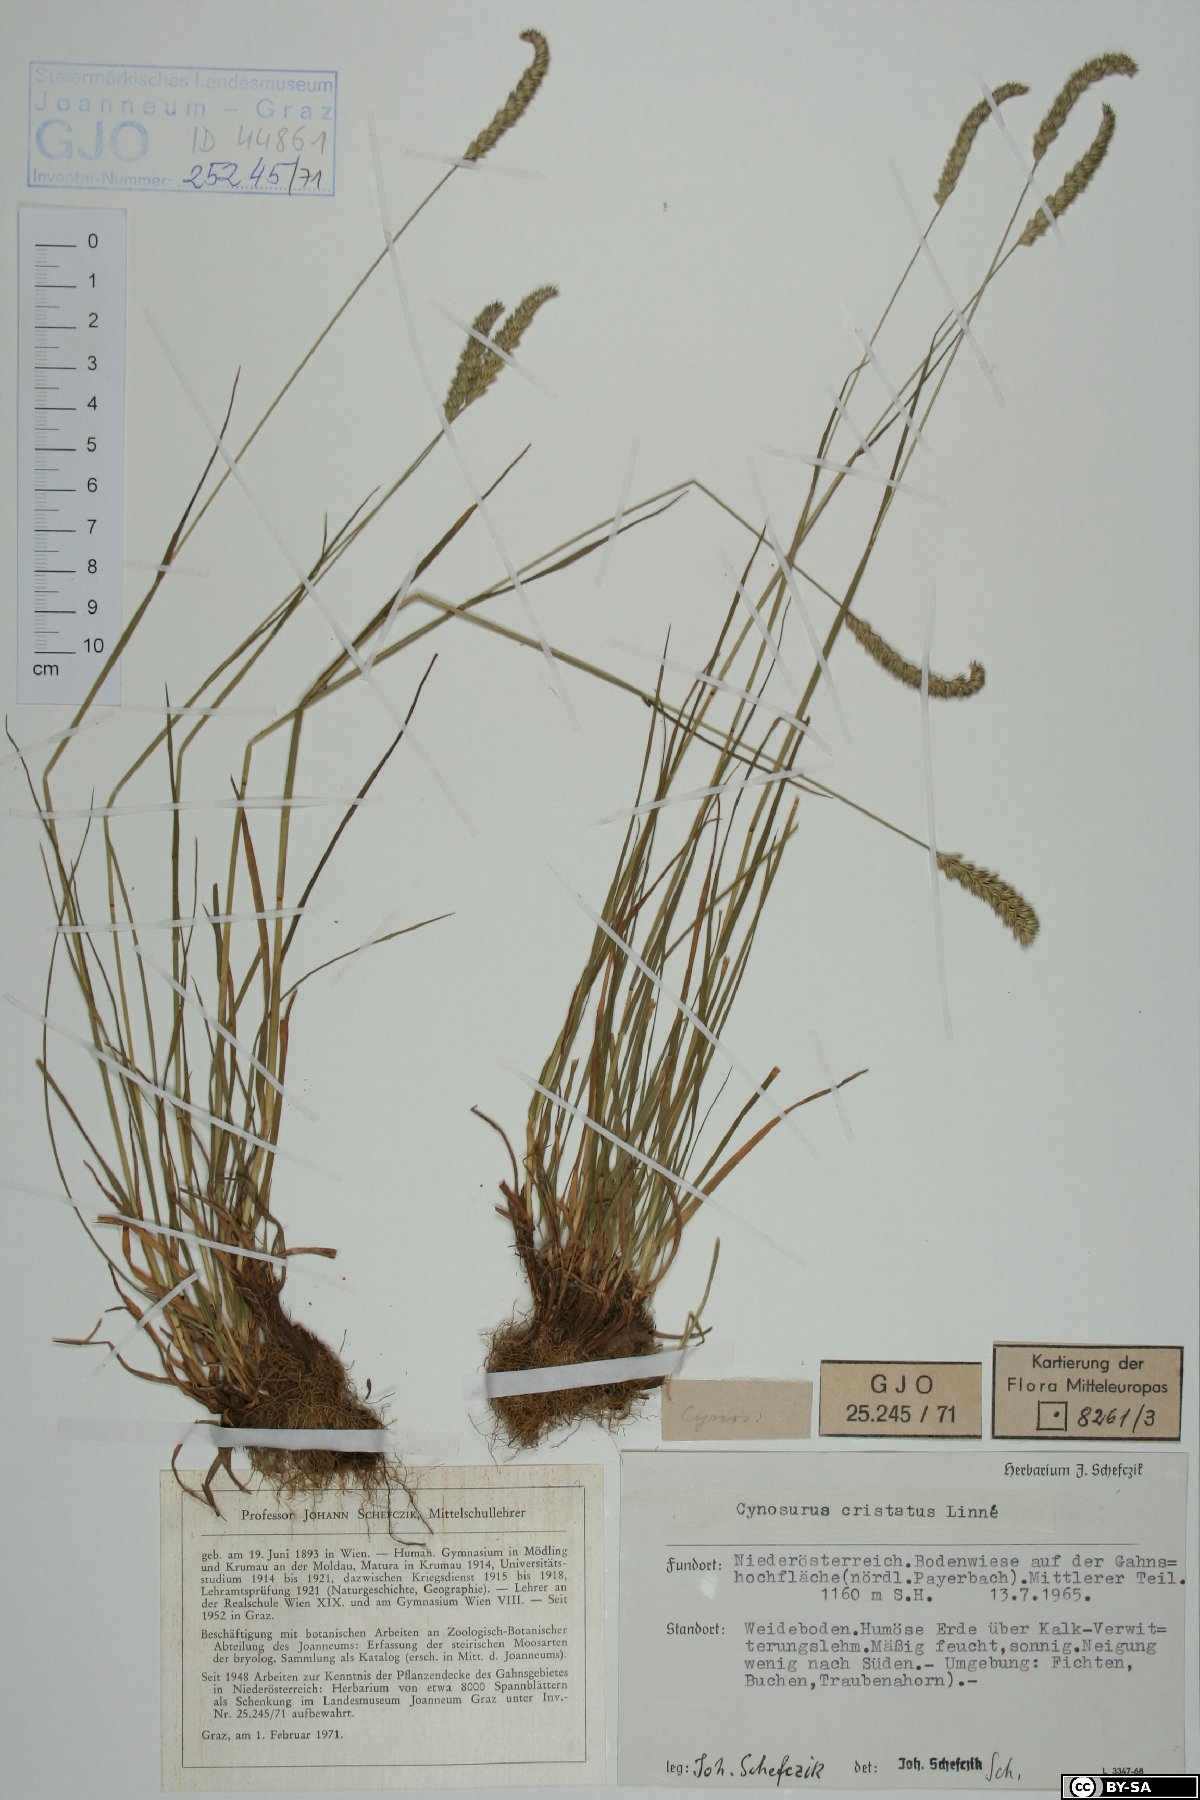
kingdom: Plantae
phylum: Tracheophyta
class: Liliopsida
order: Poales
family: Poaceae
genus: Cynosurus
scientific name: Cynosurus cristatus
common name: Crested dog's-tail
